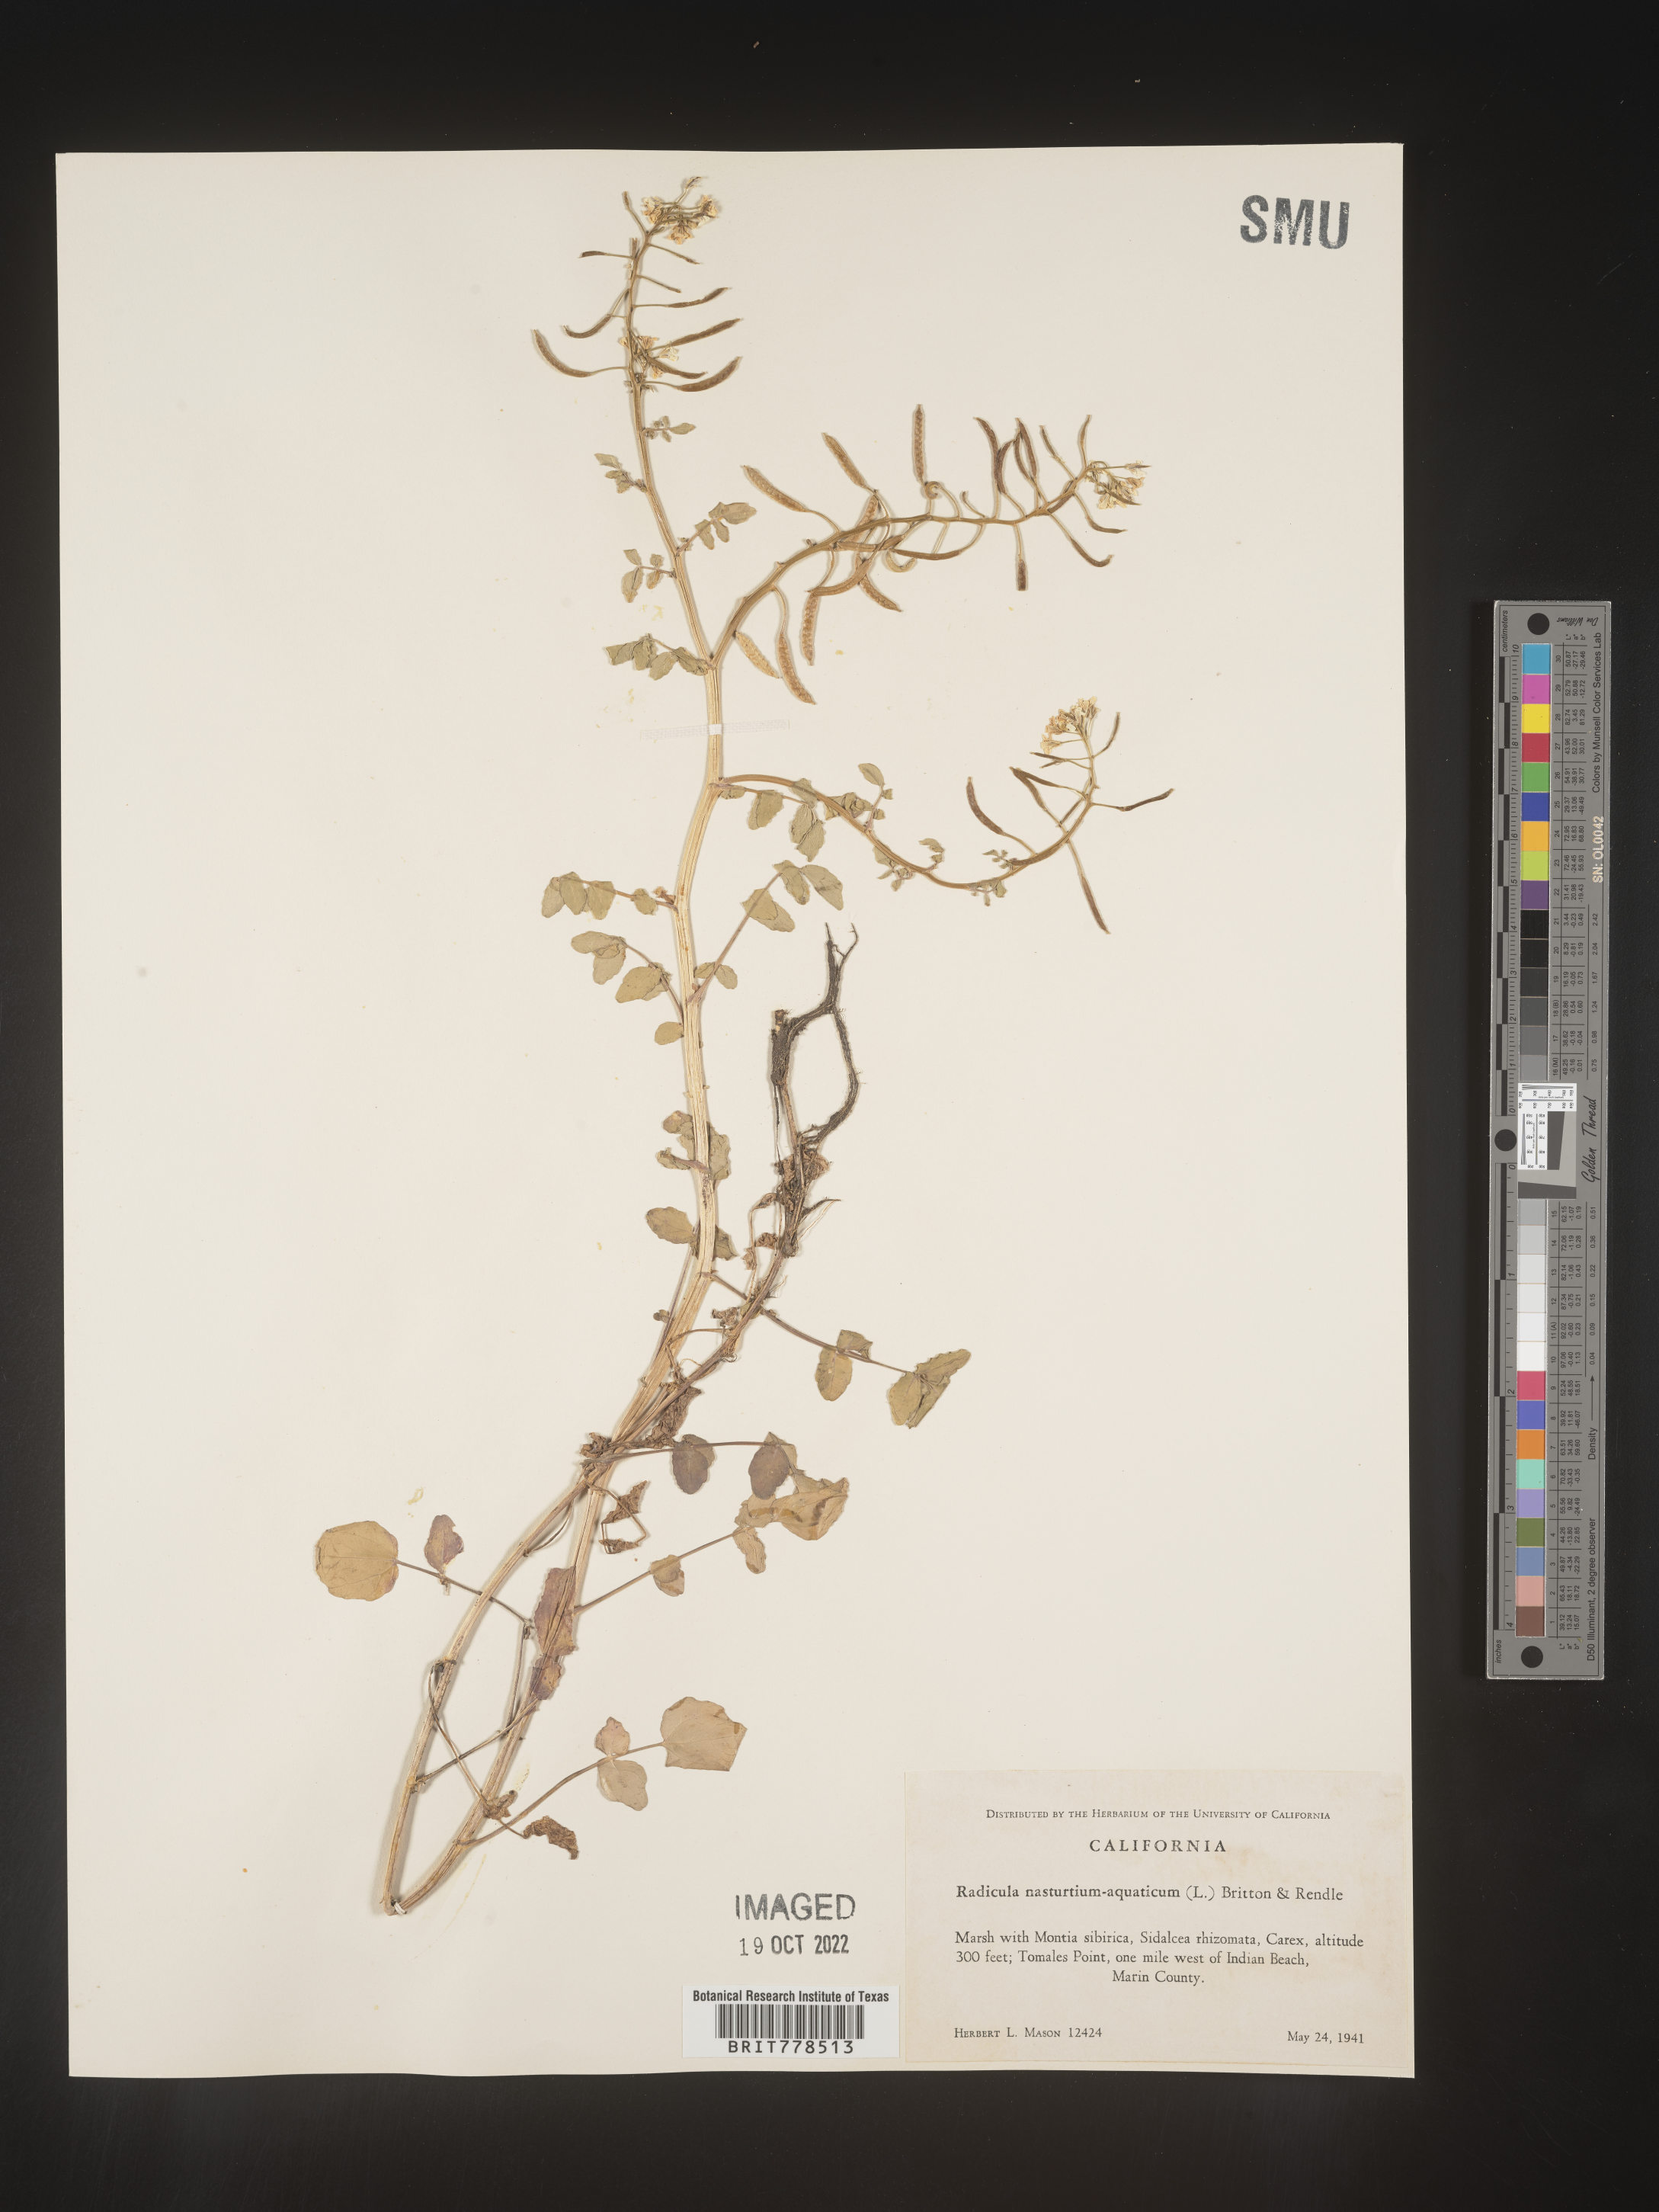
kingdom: Plantae
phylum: Tracheophyta
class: Magnoliopsida
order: Brassicales
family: Brassicaceae
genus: Nasturtium
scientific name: Nasturtium officinale
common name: Watercress
